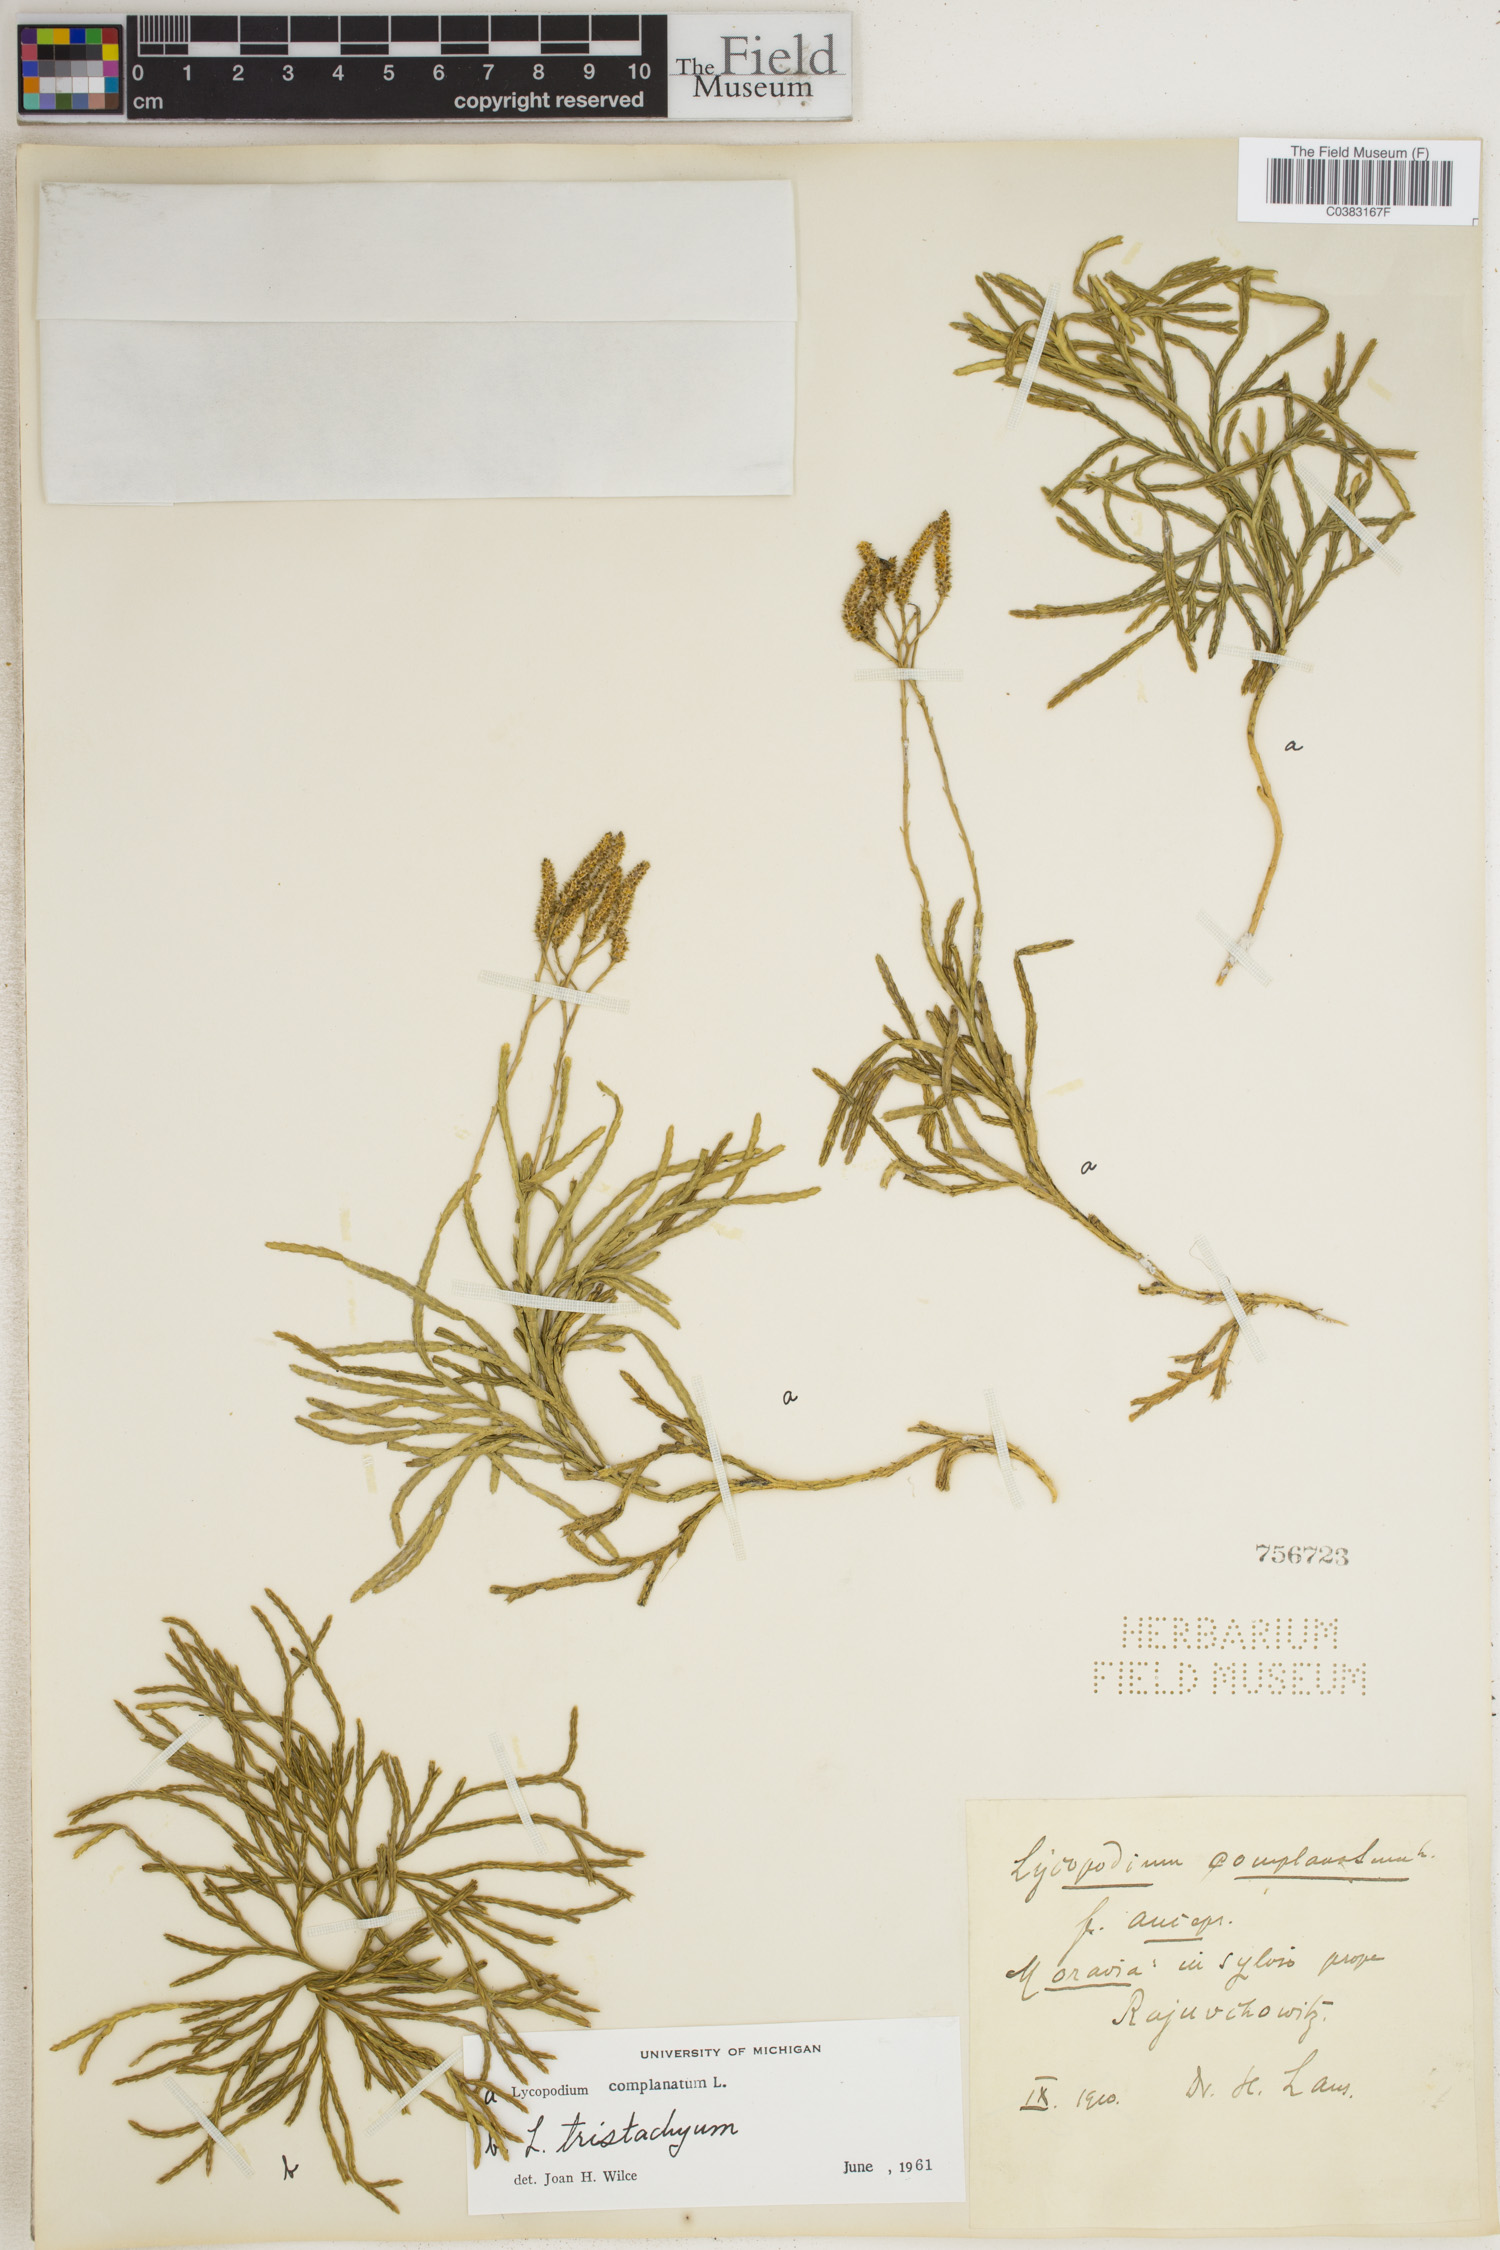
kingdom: Plantae
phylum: Tracheophyta
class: Lycopodiopsida
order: Lycopodiales
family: Lycopodiaceae
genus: Diphasiastrum
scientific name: Diphasiastrum complanatum
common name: Northern running-pine
